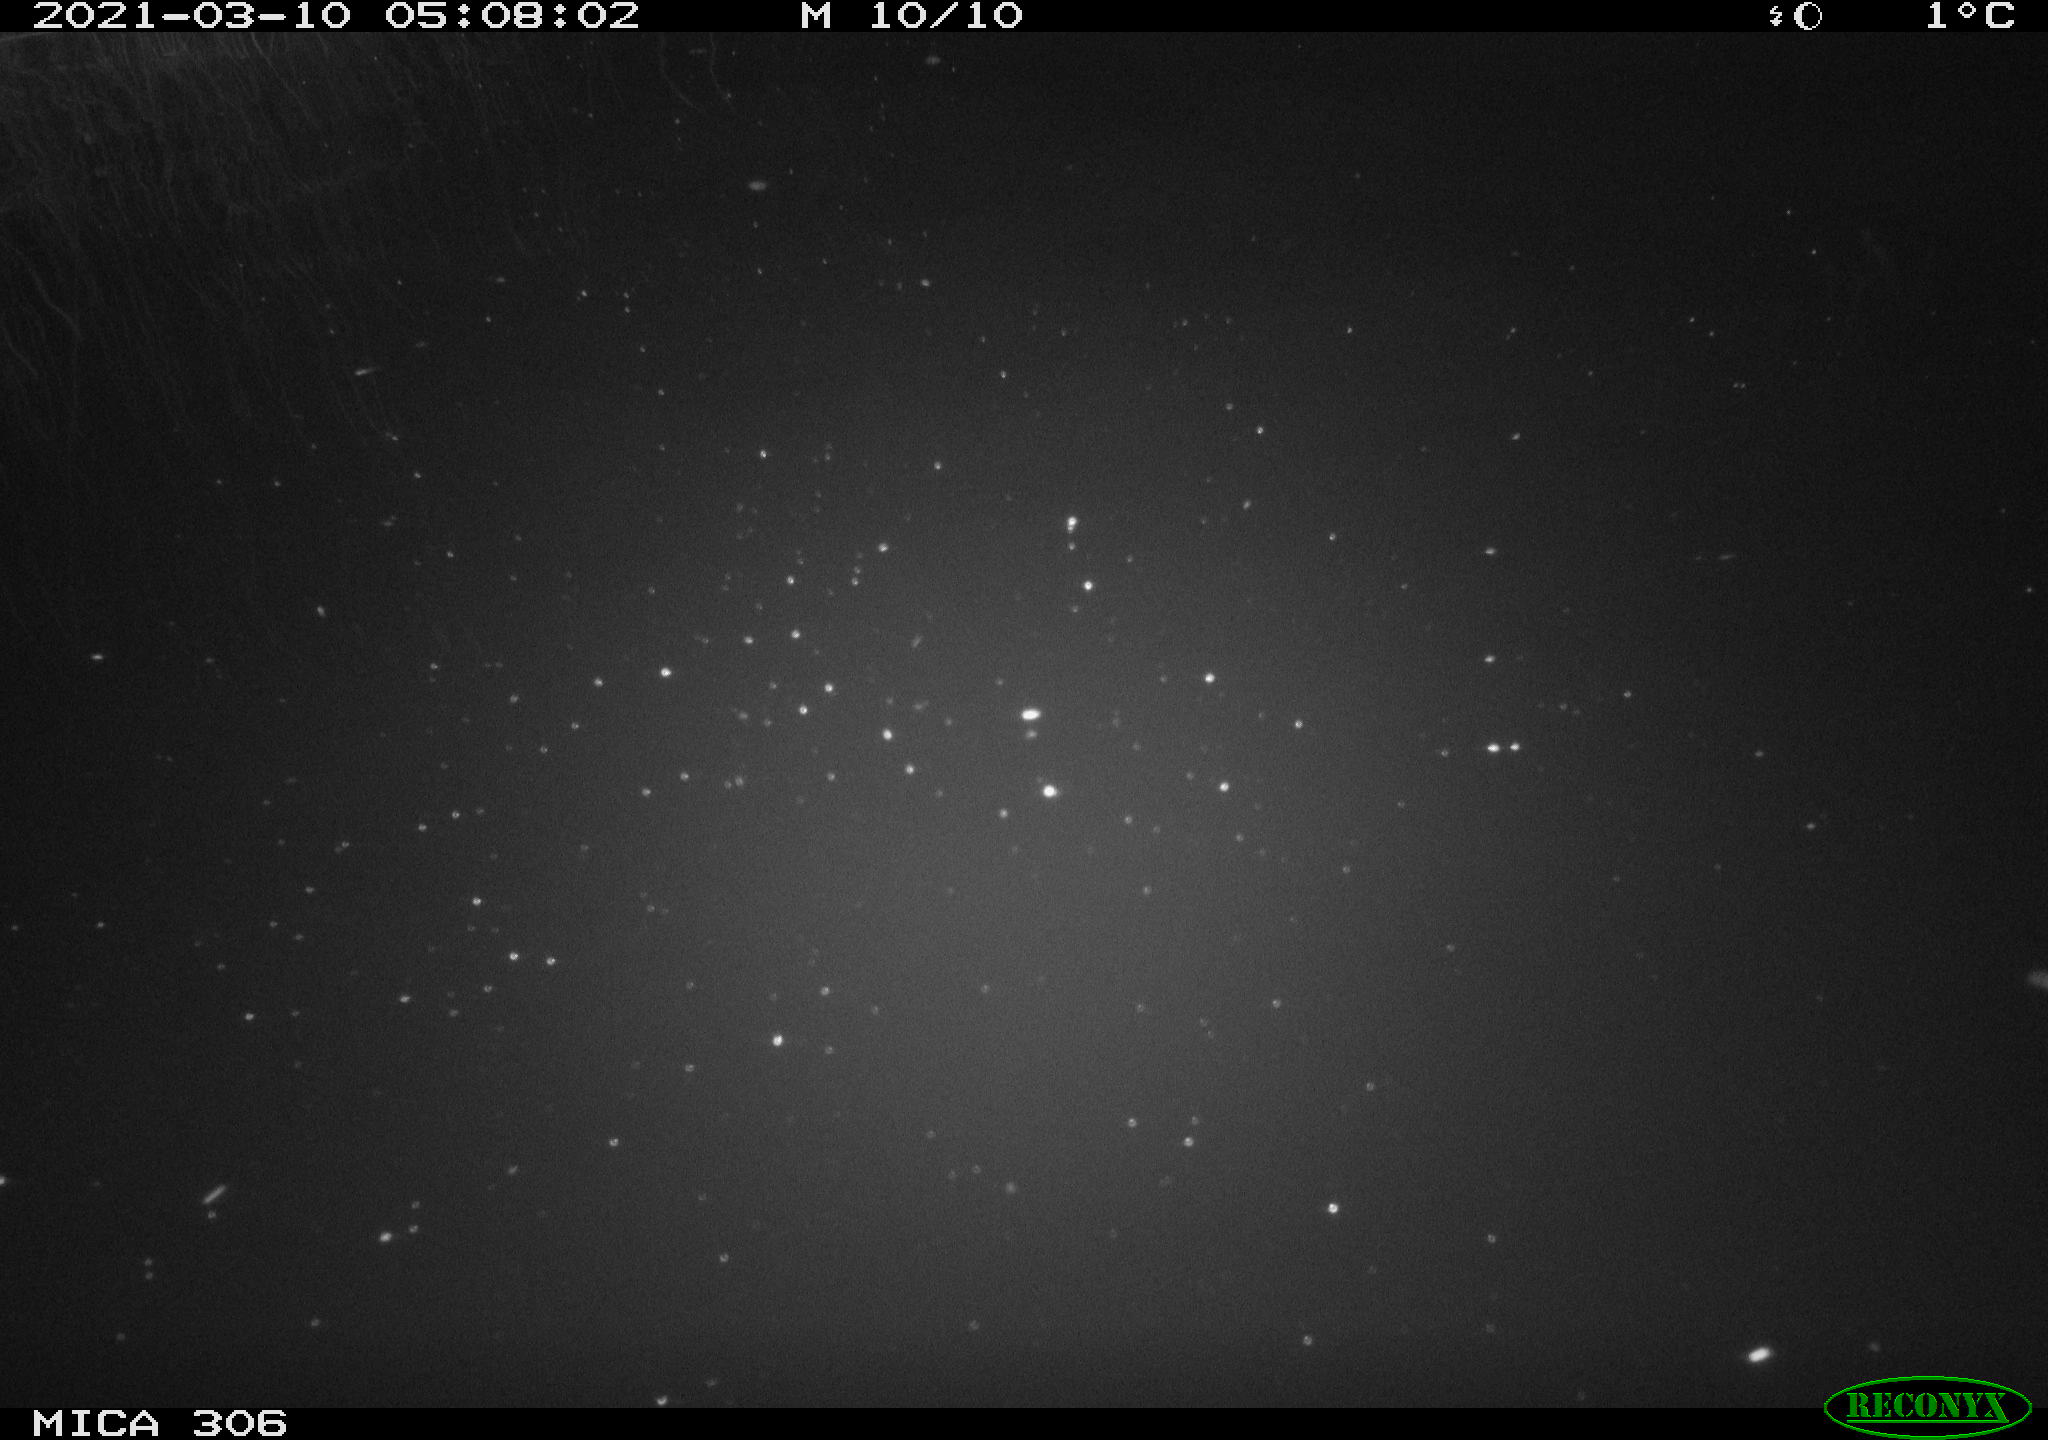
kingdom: Animalia
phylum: Chordata
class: Aves
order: Anseriformes
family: Anatidae
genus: Anas
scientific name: Anas platyrhynchos
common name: Mallard
